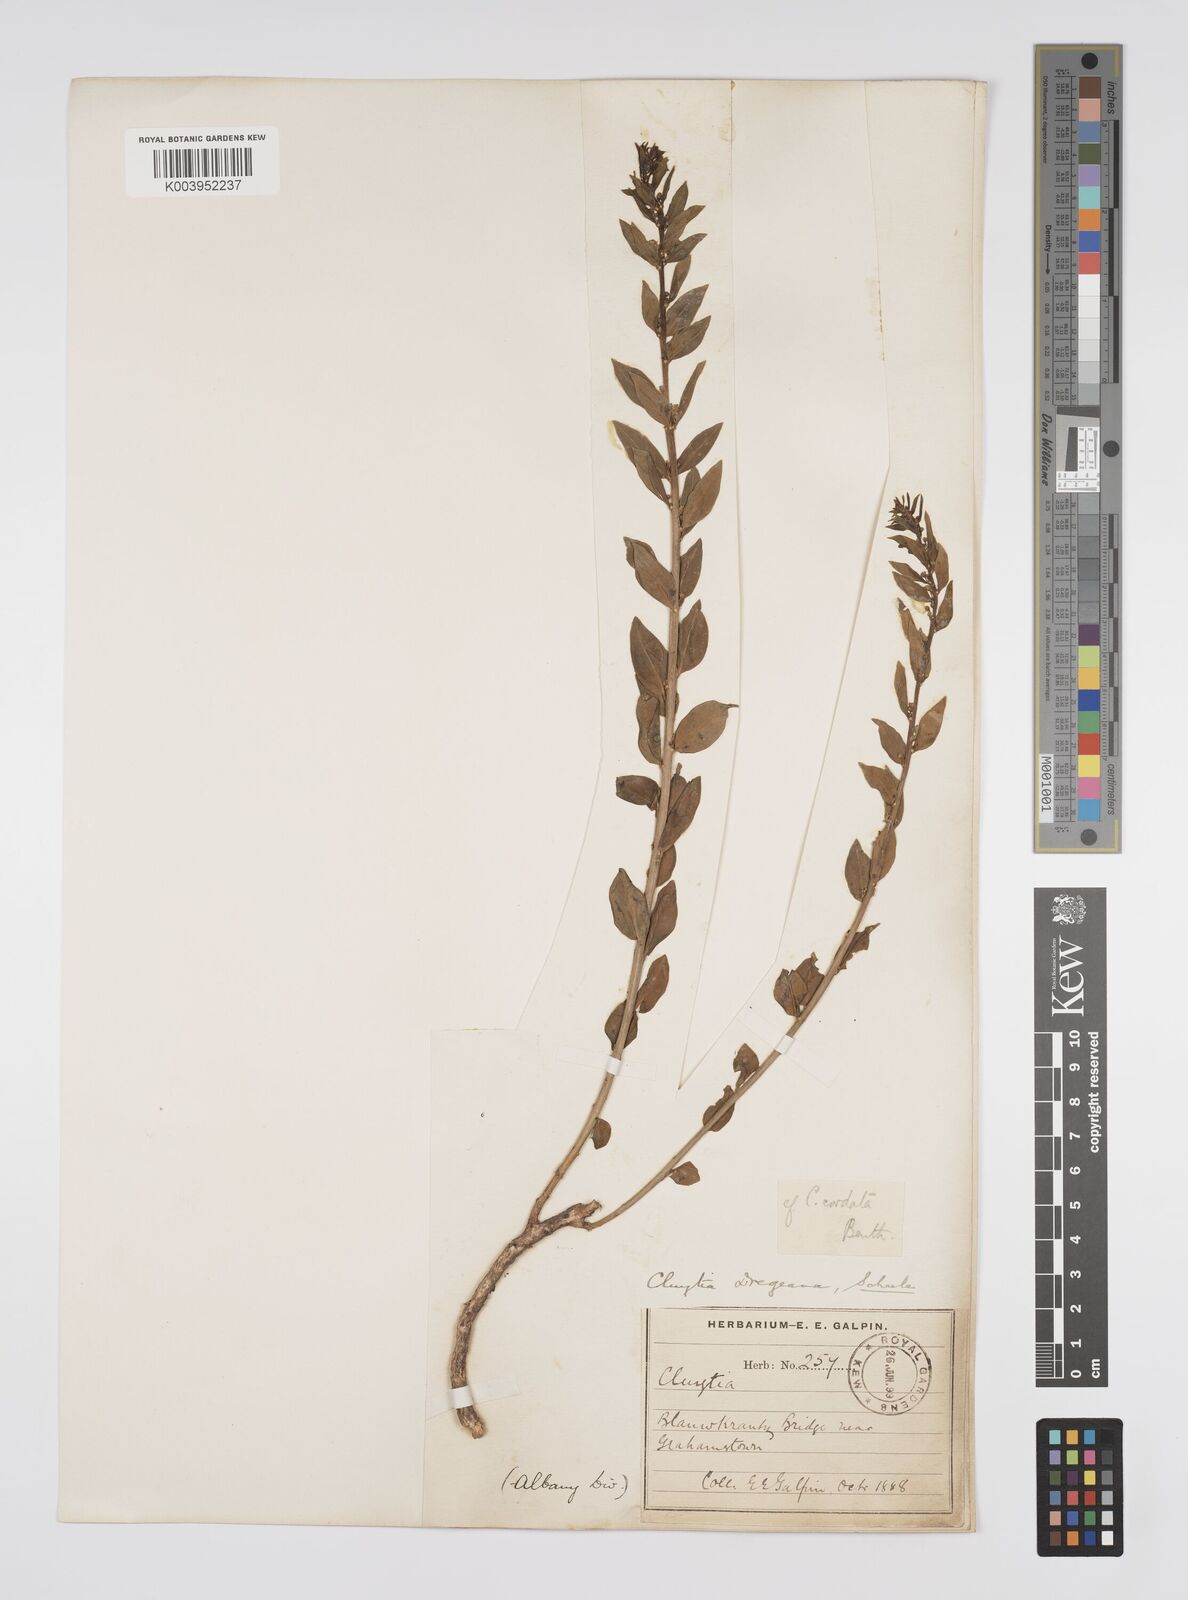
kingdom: Plantae
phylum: Tracheophyta
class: Magnoliopsida
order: Malpighiales
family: Peraceae
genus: Clutia
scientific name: Clutia dregeana
